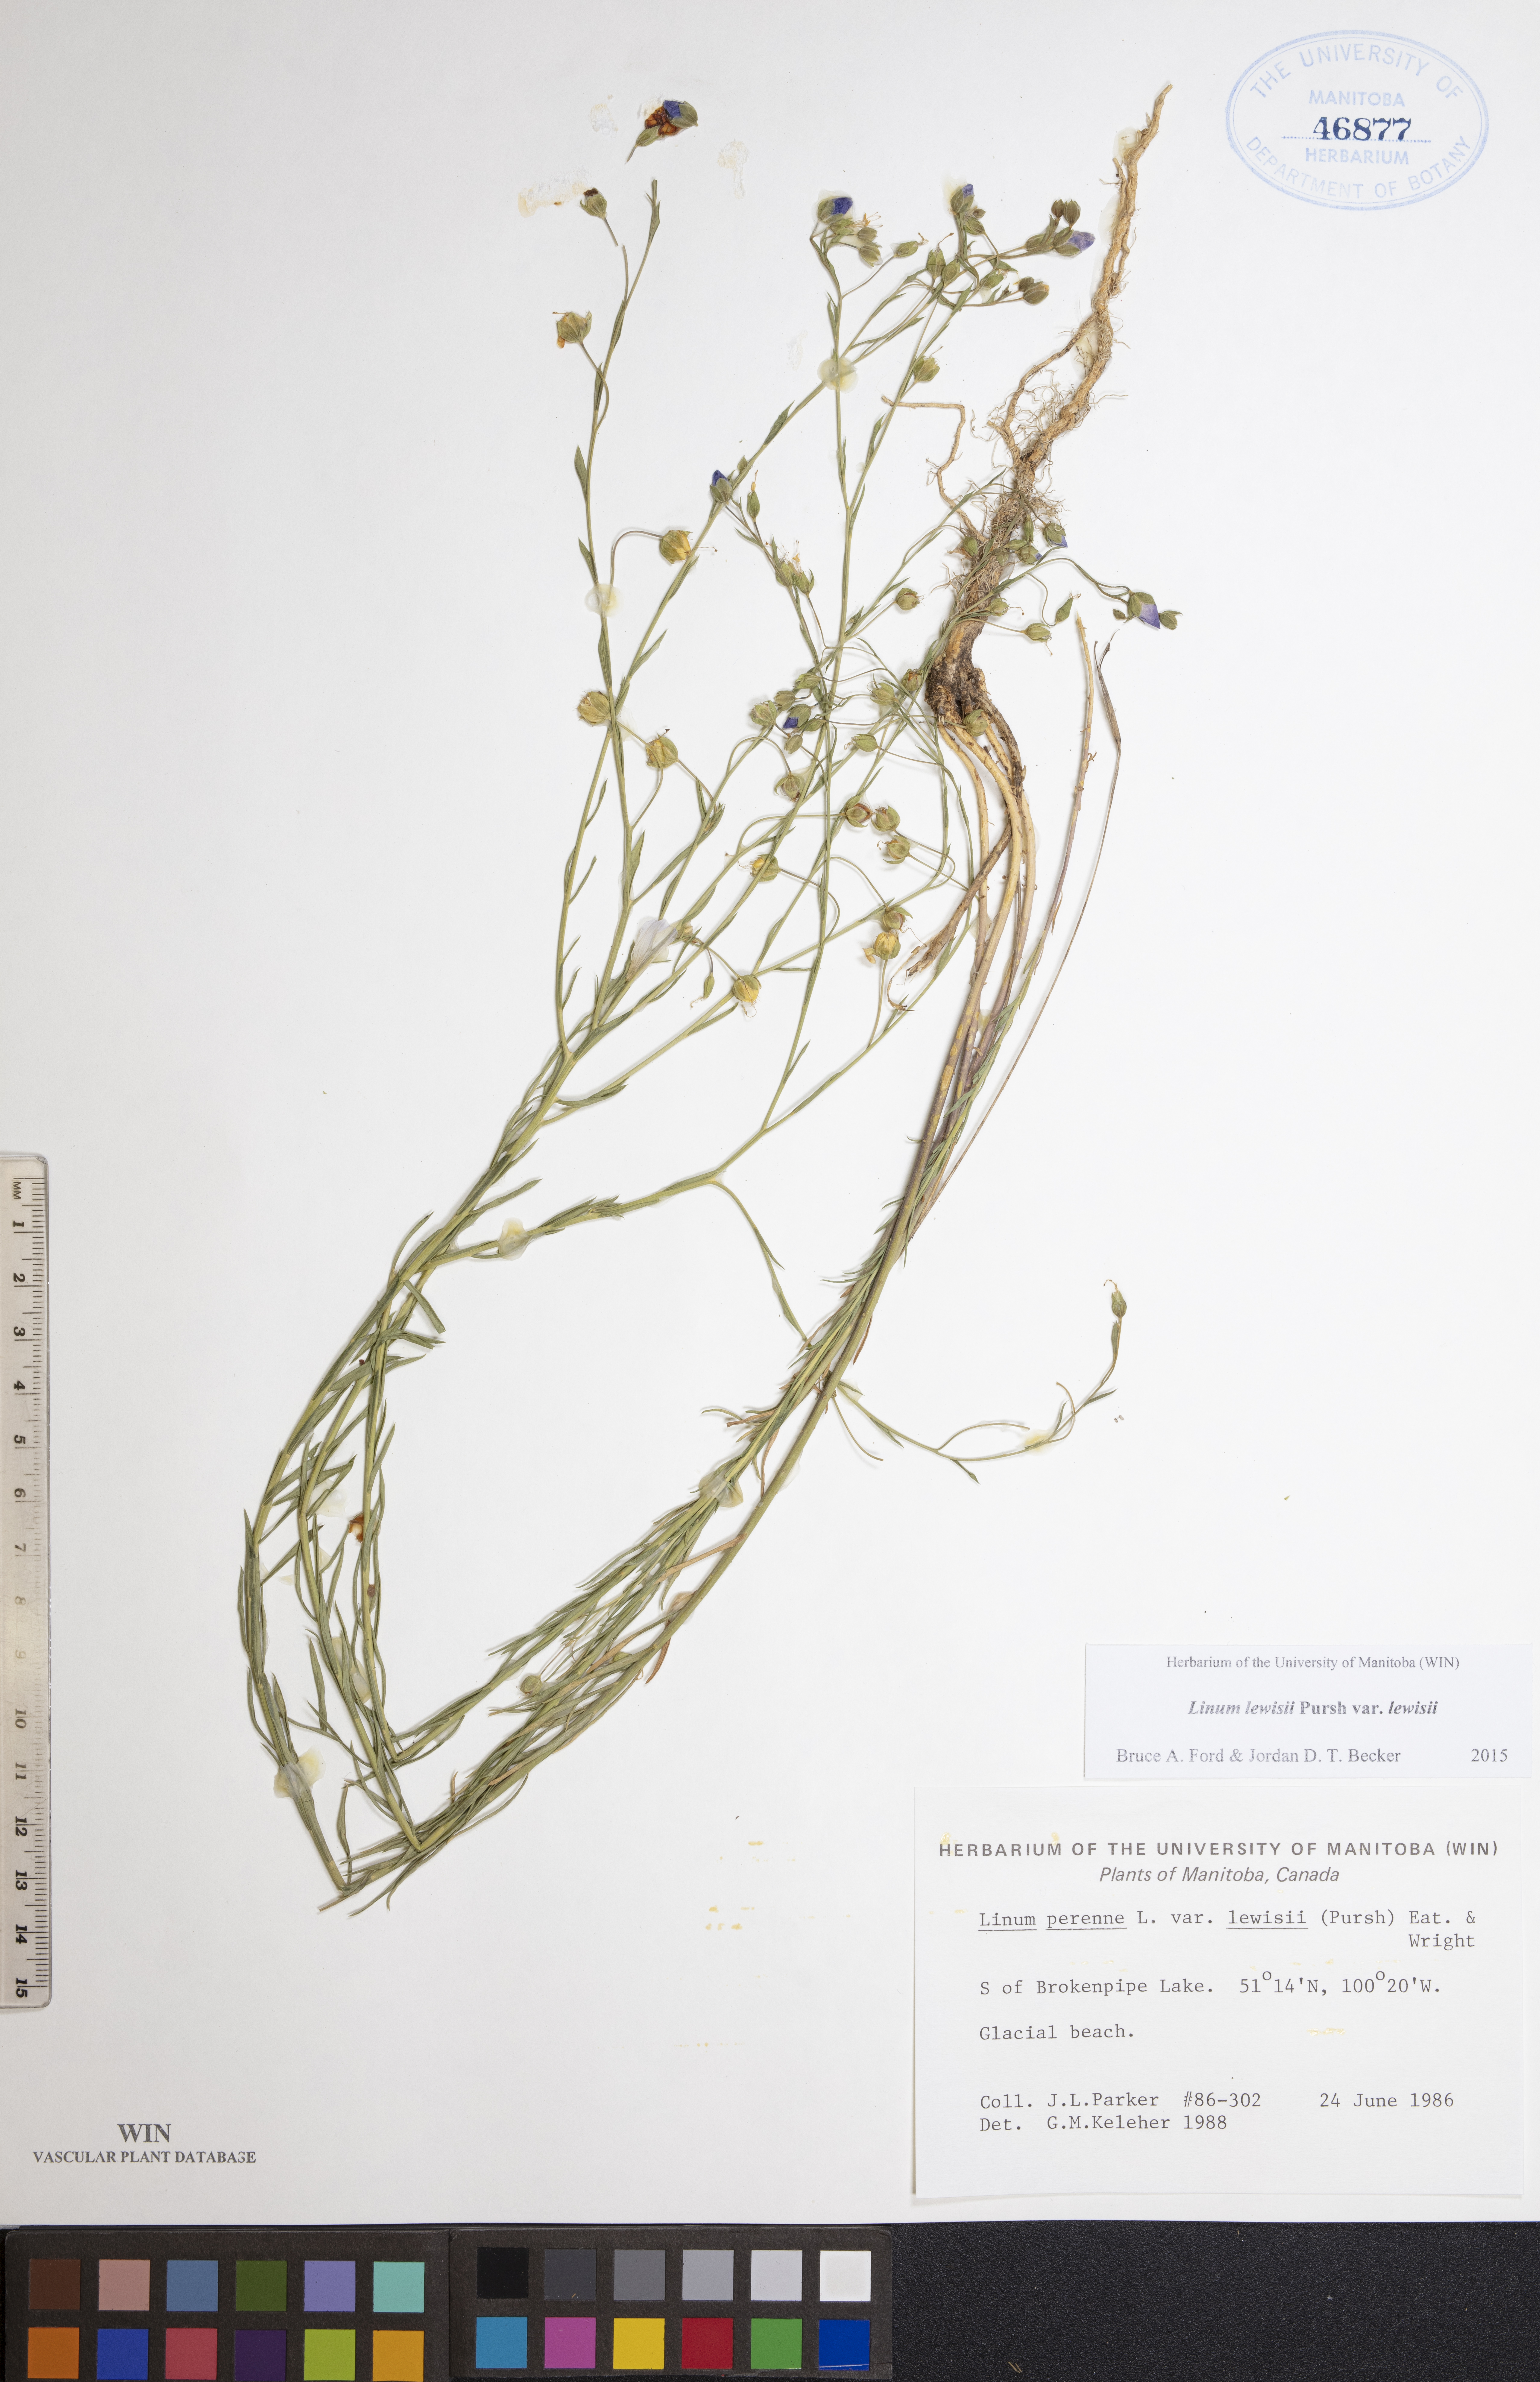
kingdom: Plantae
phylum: Tracheophyta
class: Magnoliopsida
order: Malpighiales
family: Linaceae
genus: Linum
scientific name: Linum lewisii
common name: Prairie flax
